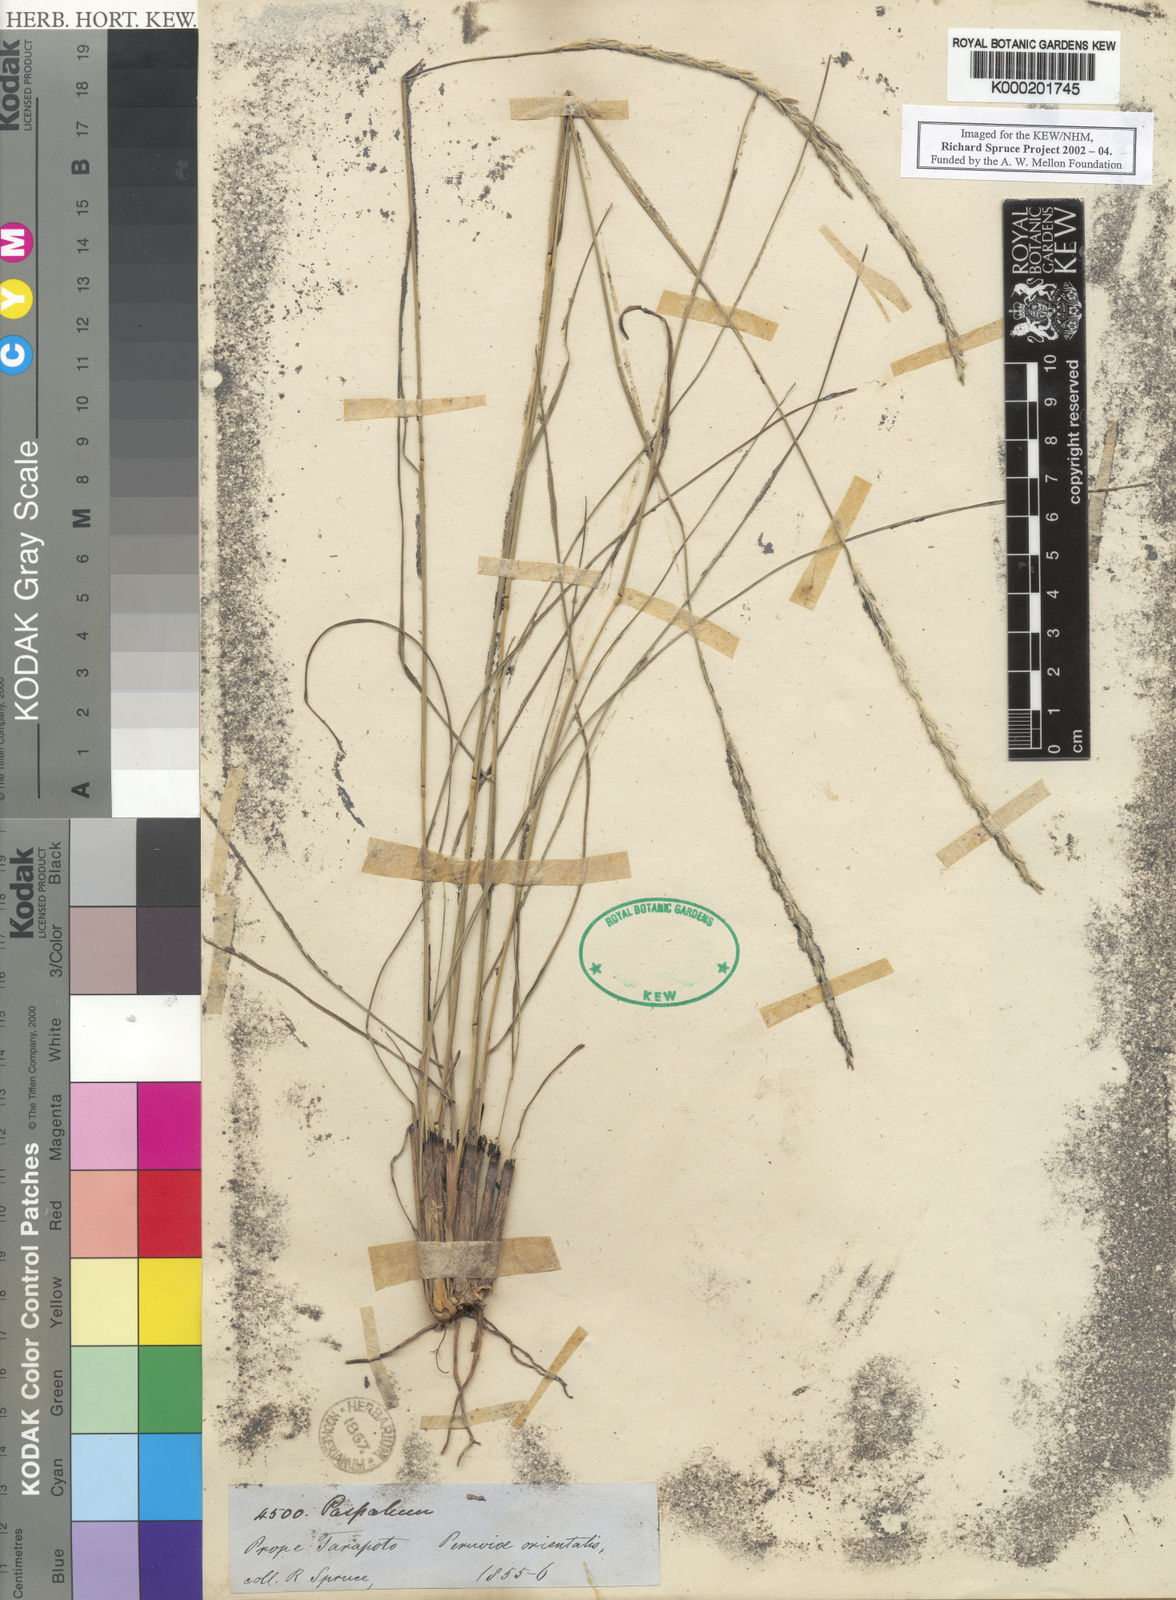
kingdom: Plantae
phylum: Tracheophyta
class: Liliopsida
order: Poales
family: Poaceae
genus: Elionurus
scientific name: Elionurus muticus
